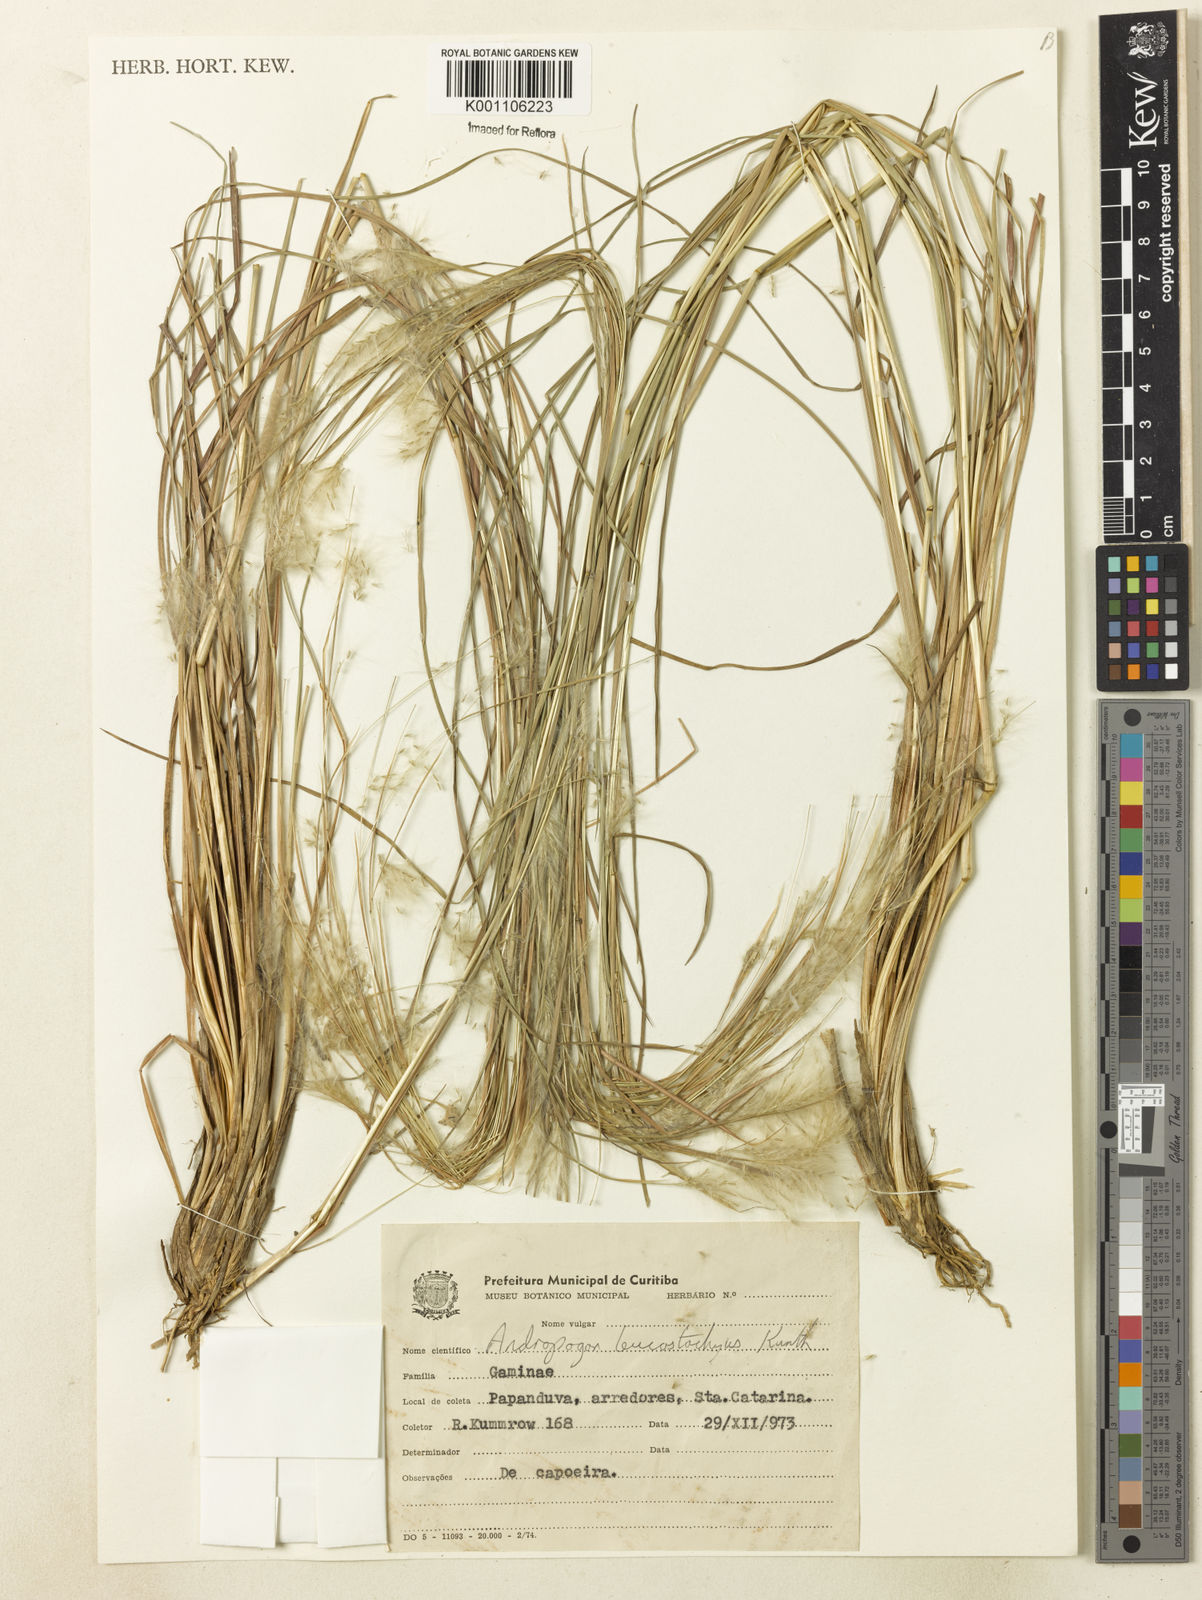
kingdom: Plantae
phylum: Tracheophyta
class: Liliopsida
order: Poales
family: Poaceae
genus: Andropogon
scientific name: Andropogon leucostachyus
